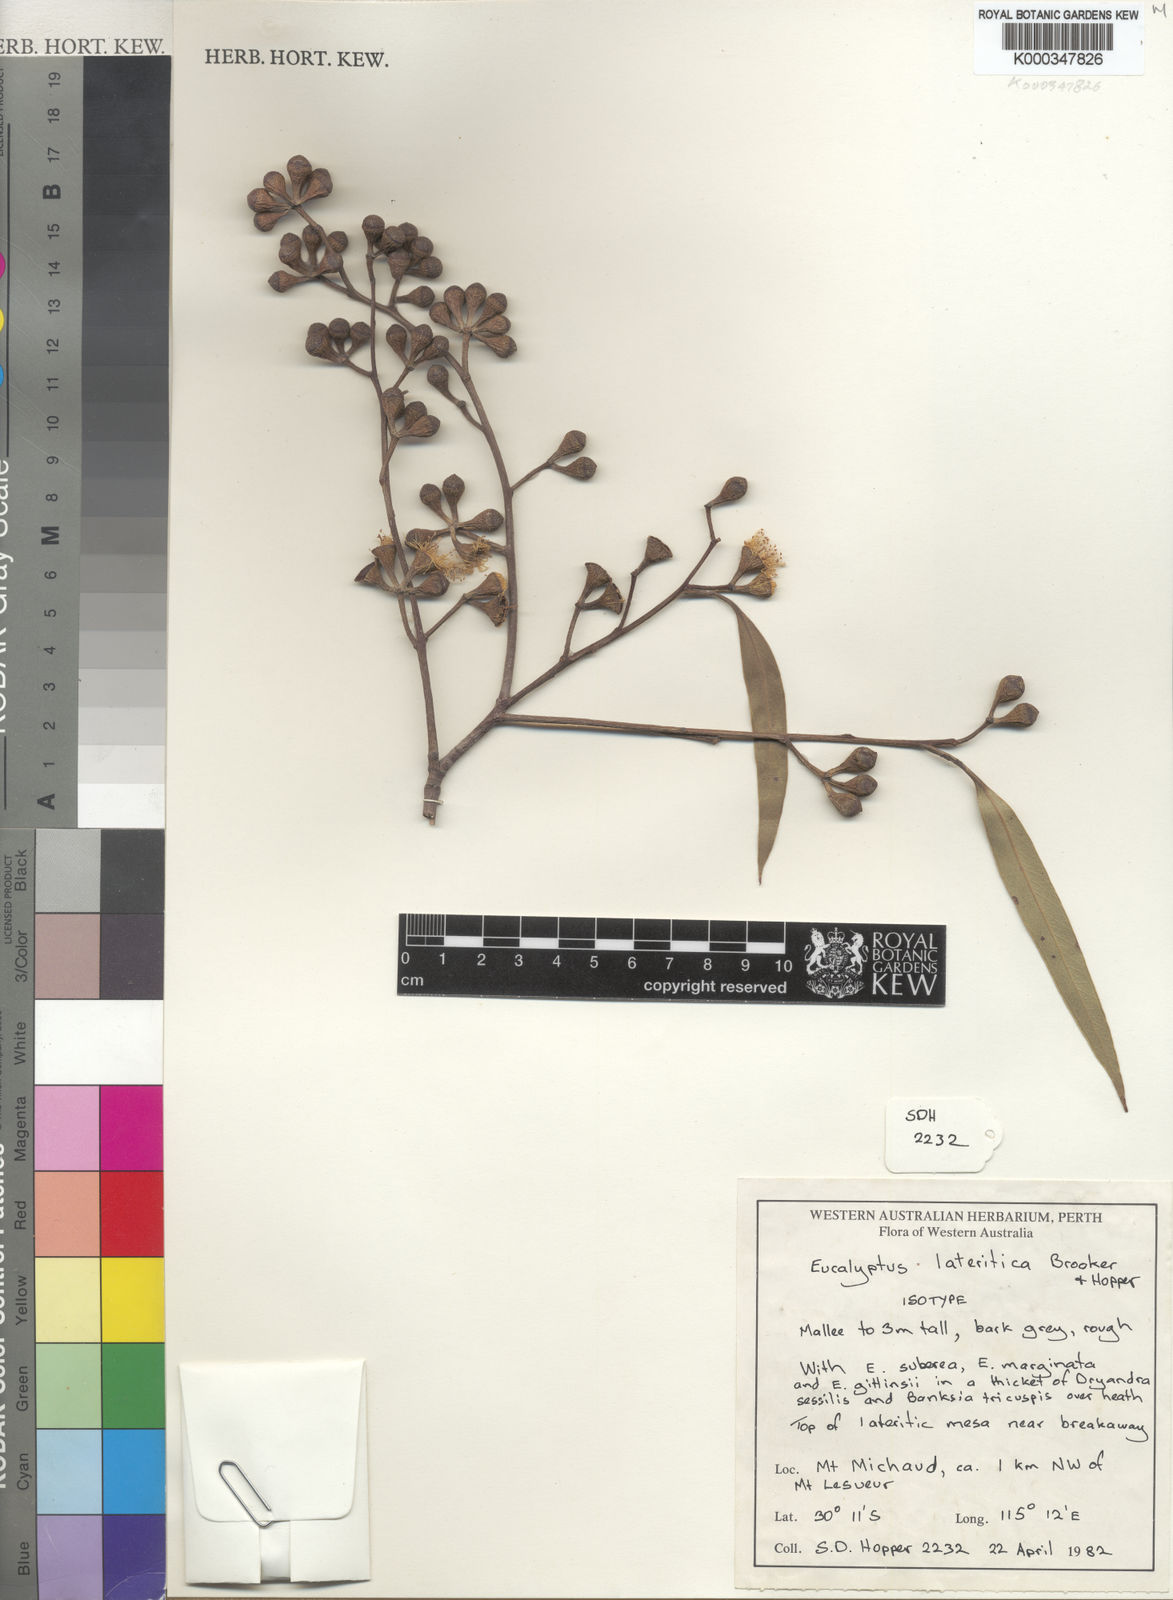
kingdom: Plantae
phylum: Tracheophyta
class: Magnoliopsida
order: Myrtales
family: Myrtaceae
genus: Eucalyptus
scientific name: Eucalyptus lateritica
